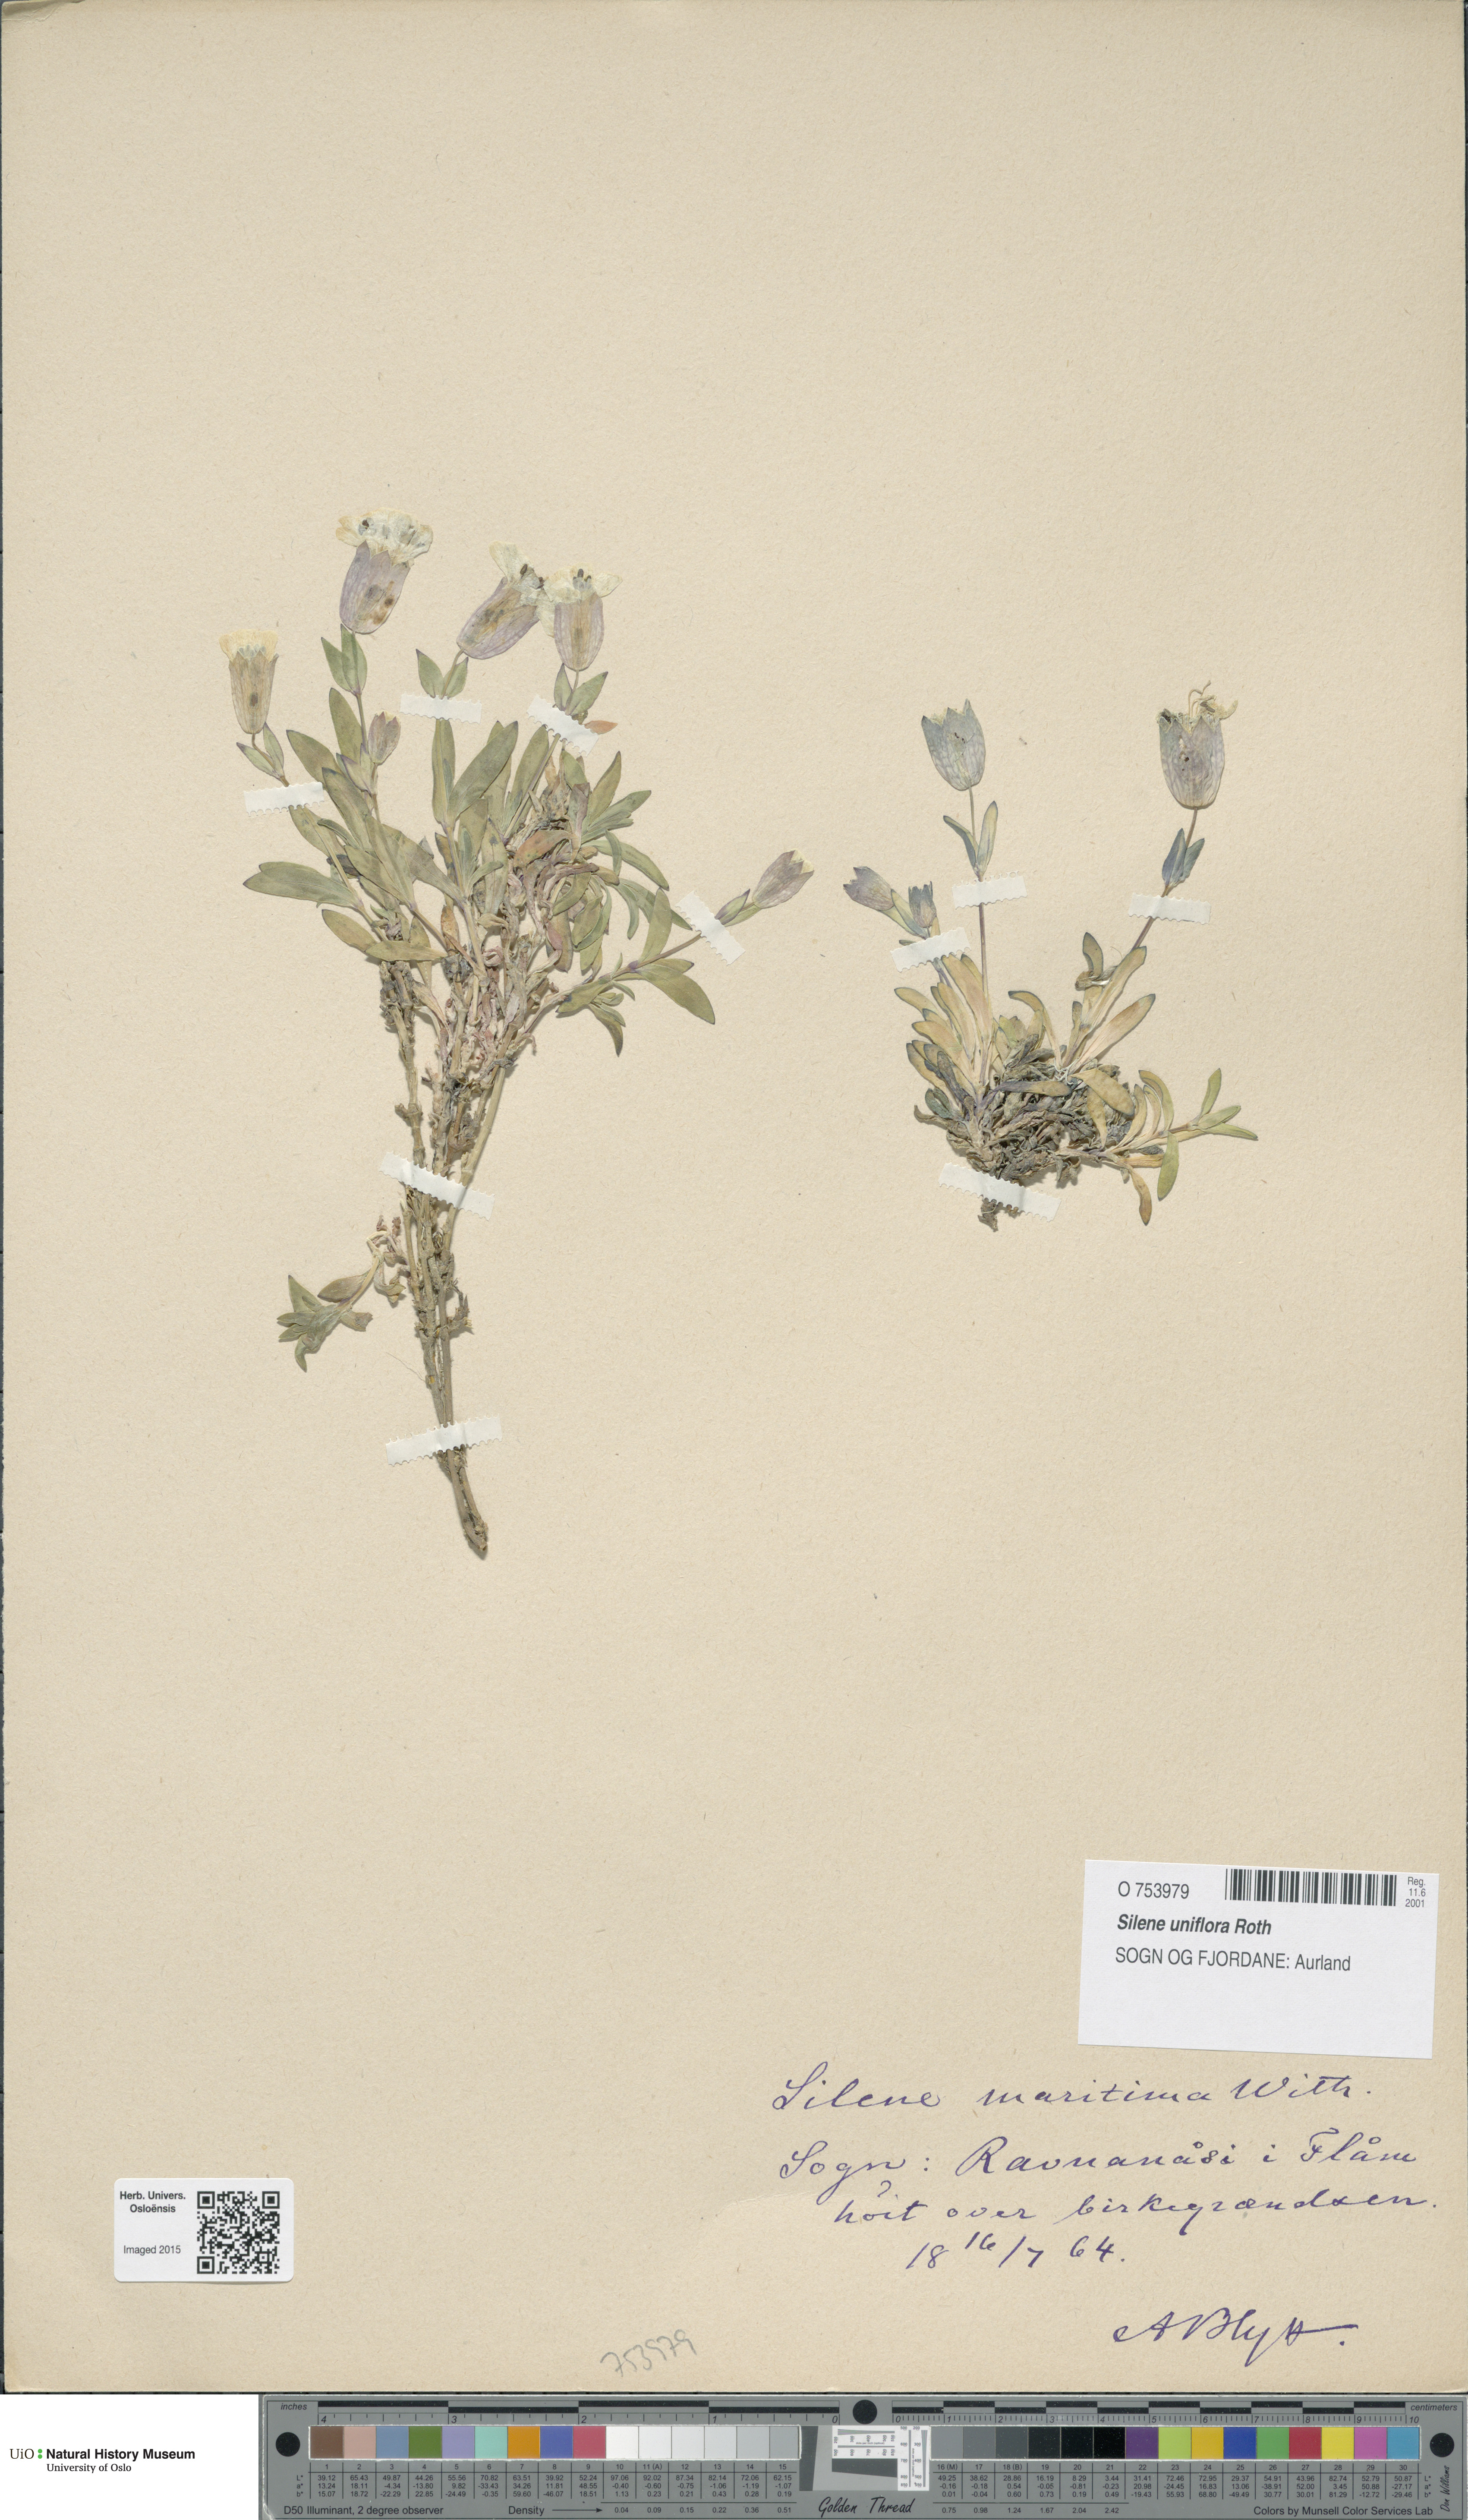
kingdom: Plantae
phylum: Tracheophyta
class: Magnoliopsida
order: Caryophyllales
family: Caryophyllaceae
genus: Silene
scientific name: Silene uniflora
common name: Sea campion
